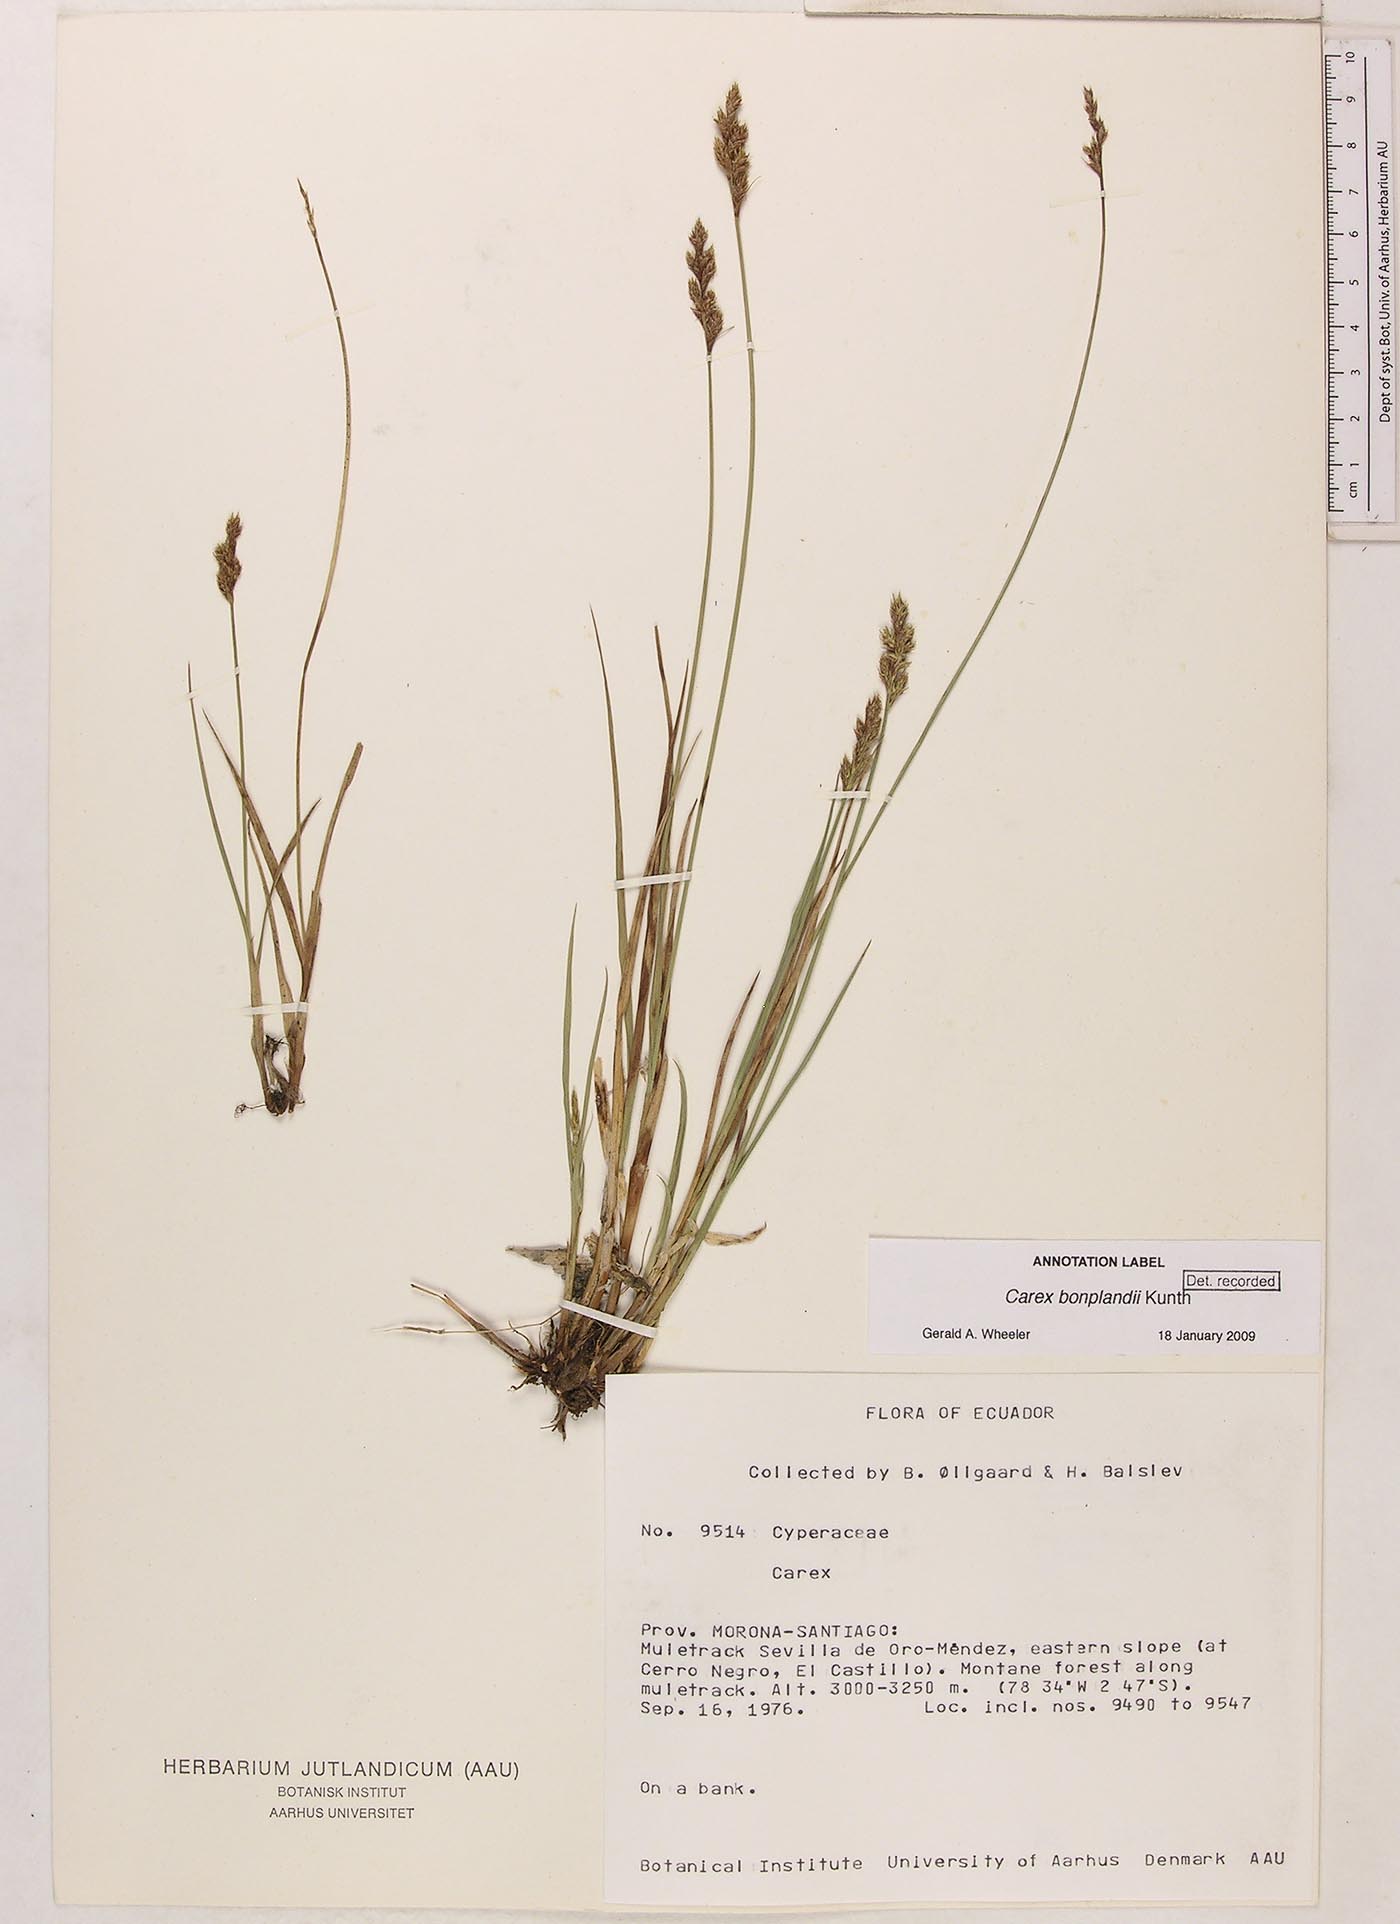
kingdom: Plantae
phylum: Tracheophyta
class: Liliopsida
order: Poales
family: Cyperaceae
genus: Carex
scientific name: Carex bonplandii
